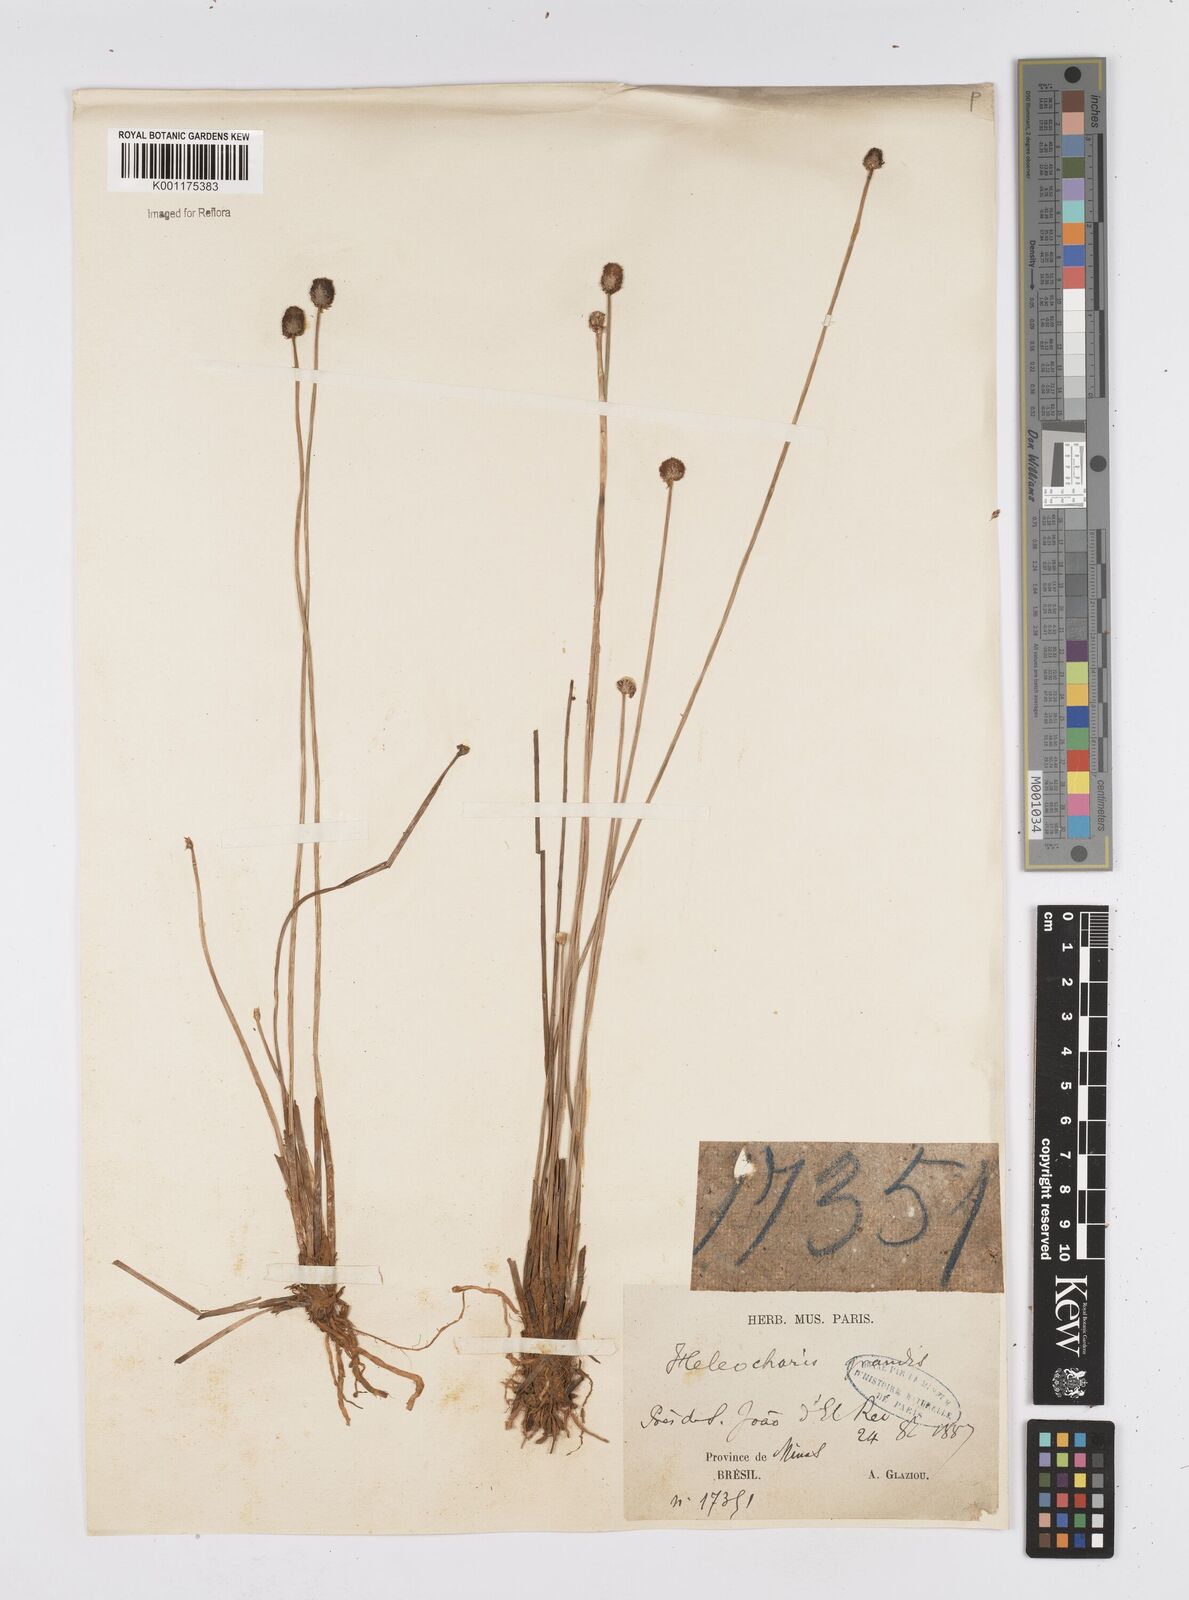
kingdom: Plantae
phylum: Tracheophyta
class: Liliopsida
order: Poales
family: Cyperaceae
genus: Eleocharis
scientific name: Eleocharis nudipes
